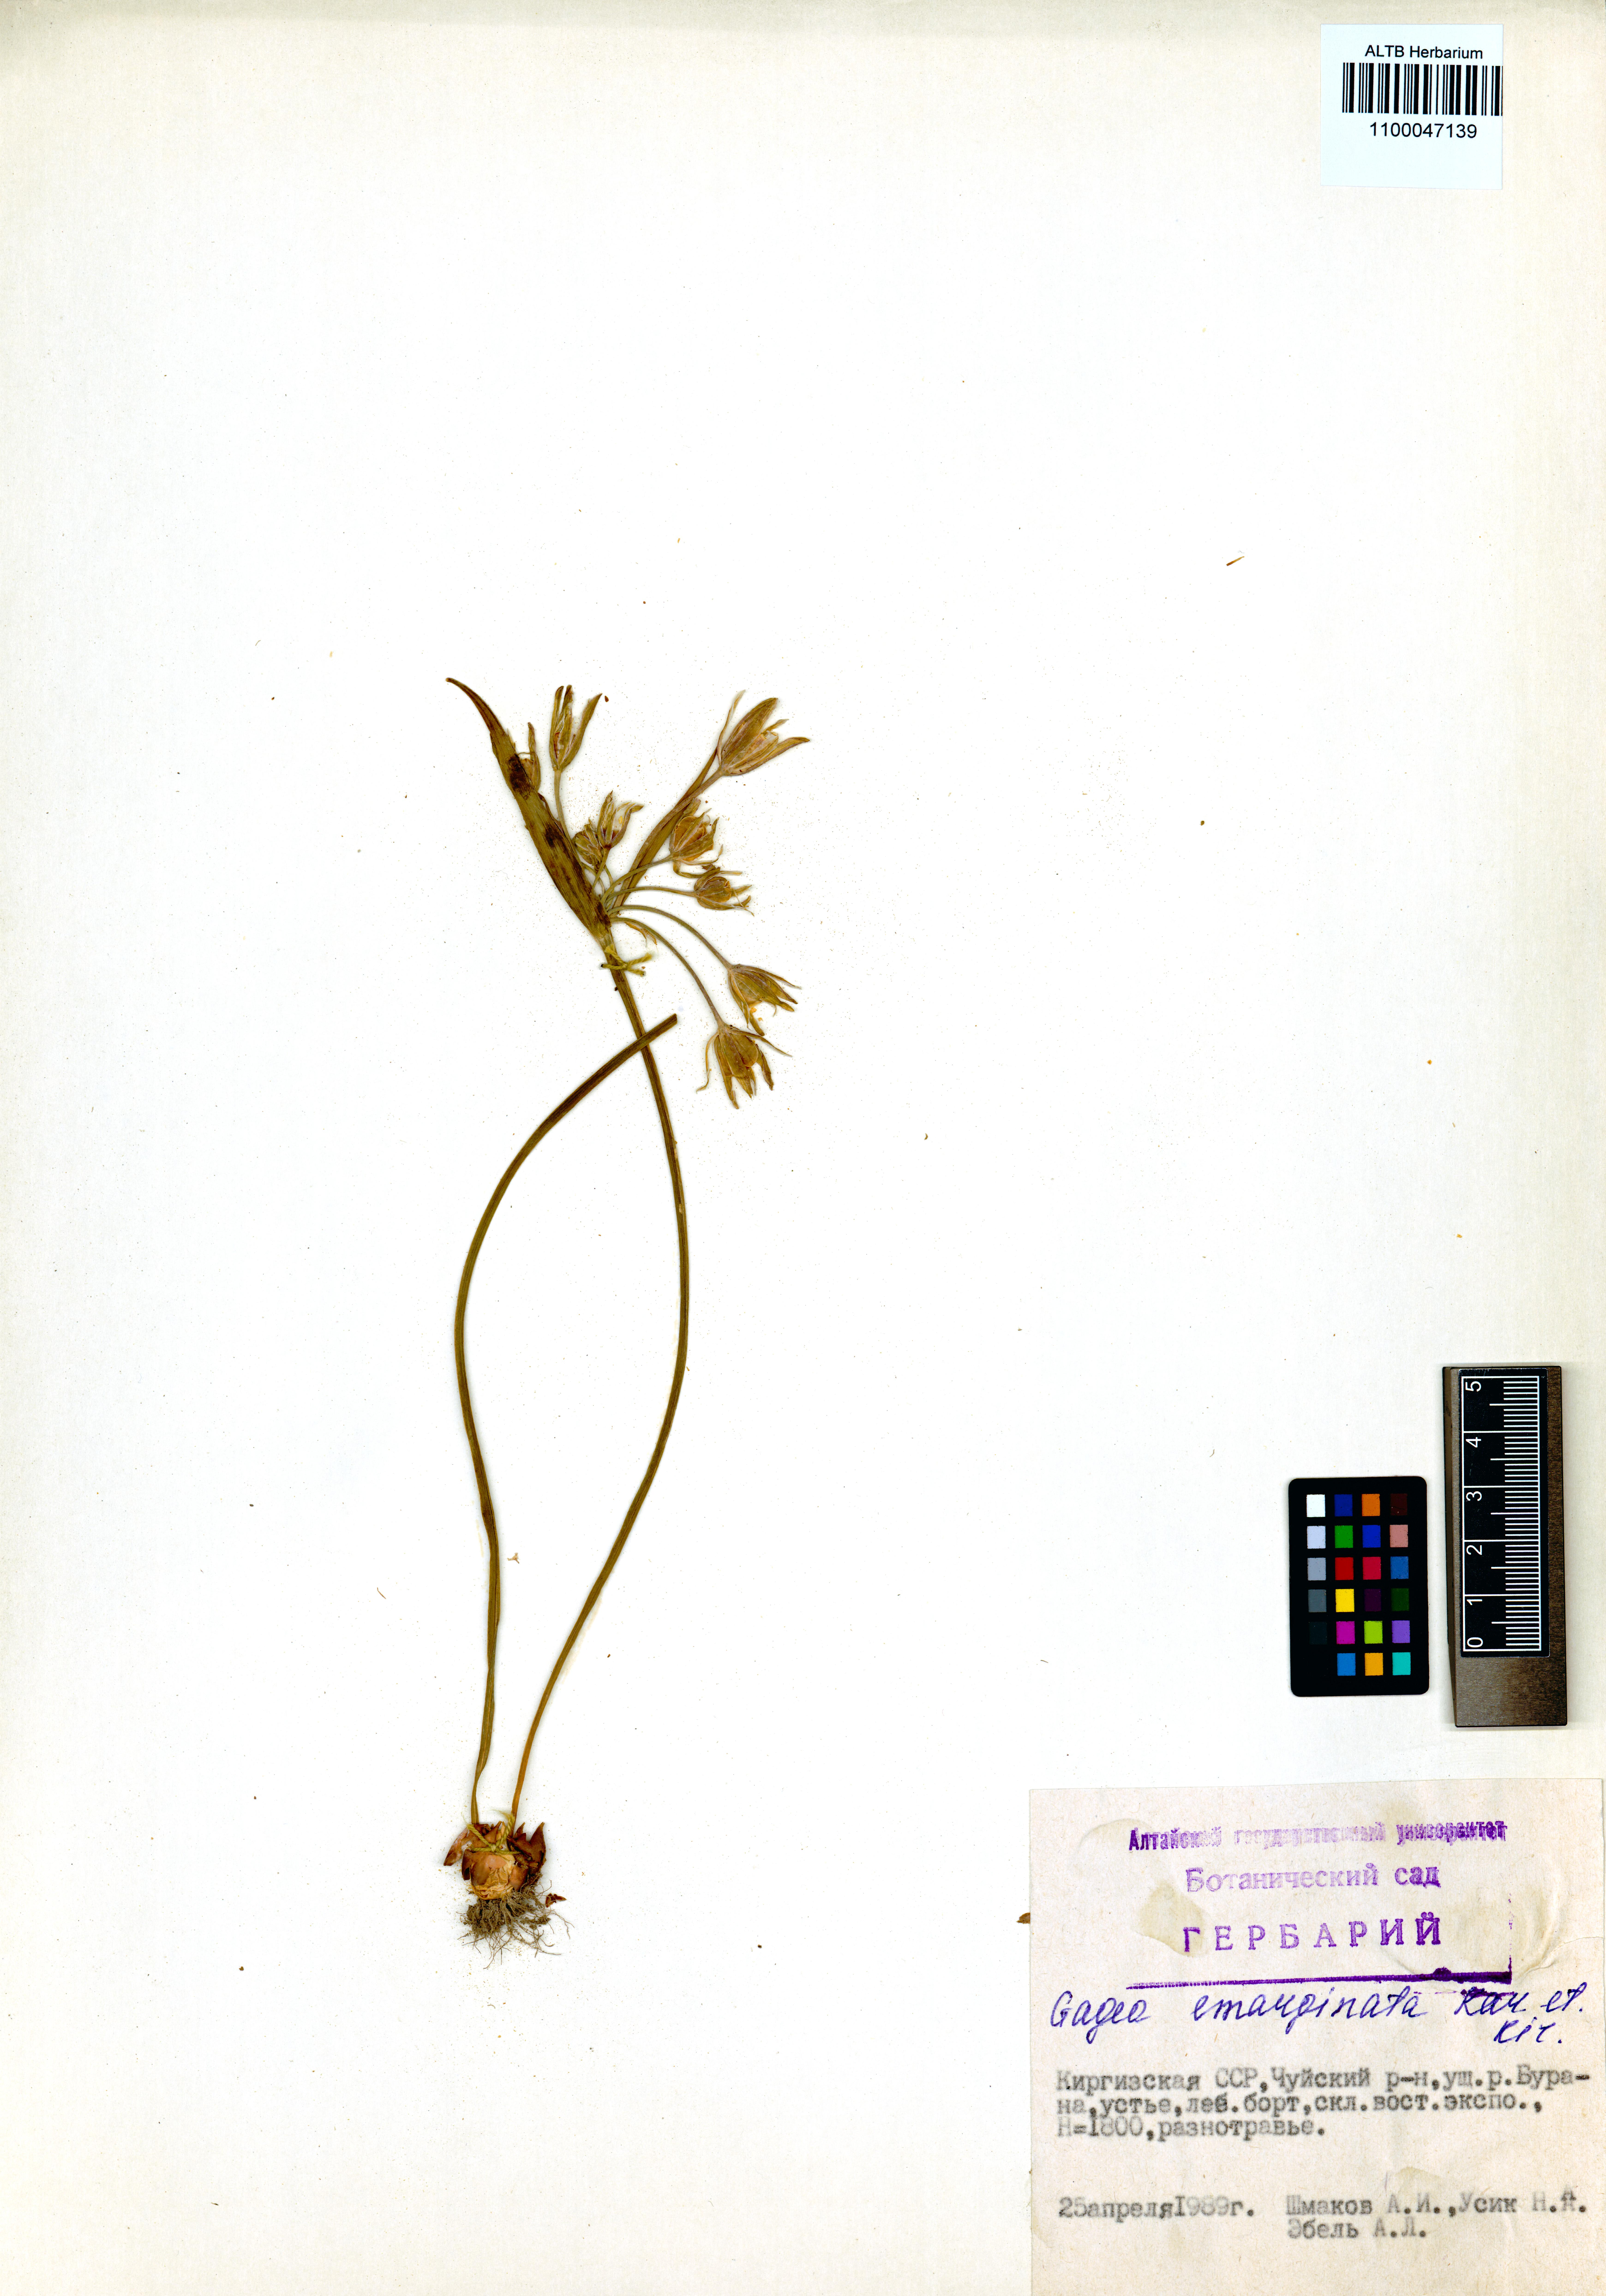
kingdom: Plantae
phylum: Tracheophyta
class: Liliopsida
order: Liliales
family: Liliaceae
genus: Gagea
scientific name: Gagea fragifera
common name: Lily
